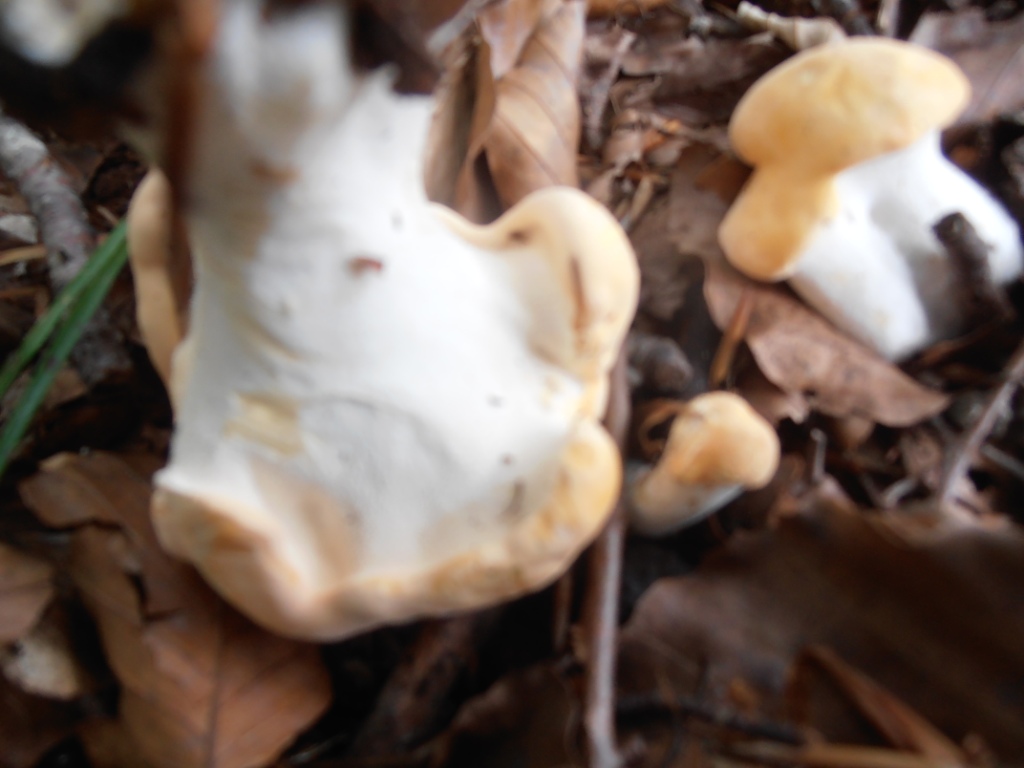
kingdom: Fungi
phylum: Basidiomycota
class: Agaricomycetes
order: Cantharellales
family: Hydnaceae
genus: Hydnum
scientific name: Hydnum repandum
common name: almindelig pigsvamp
